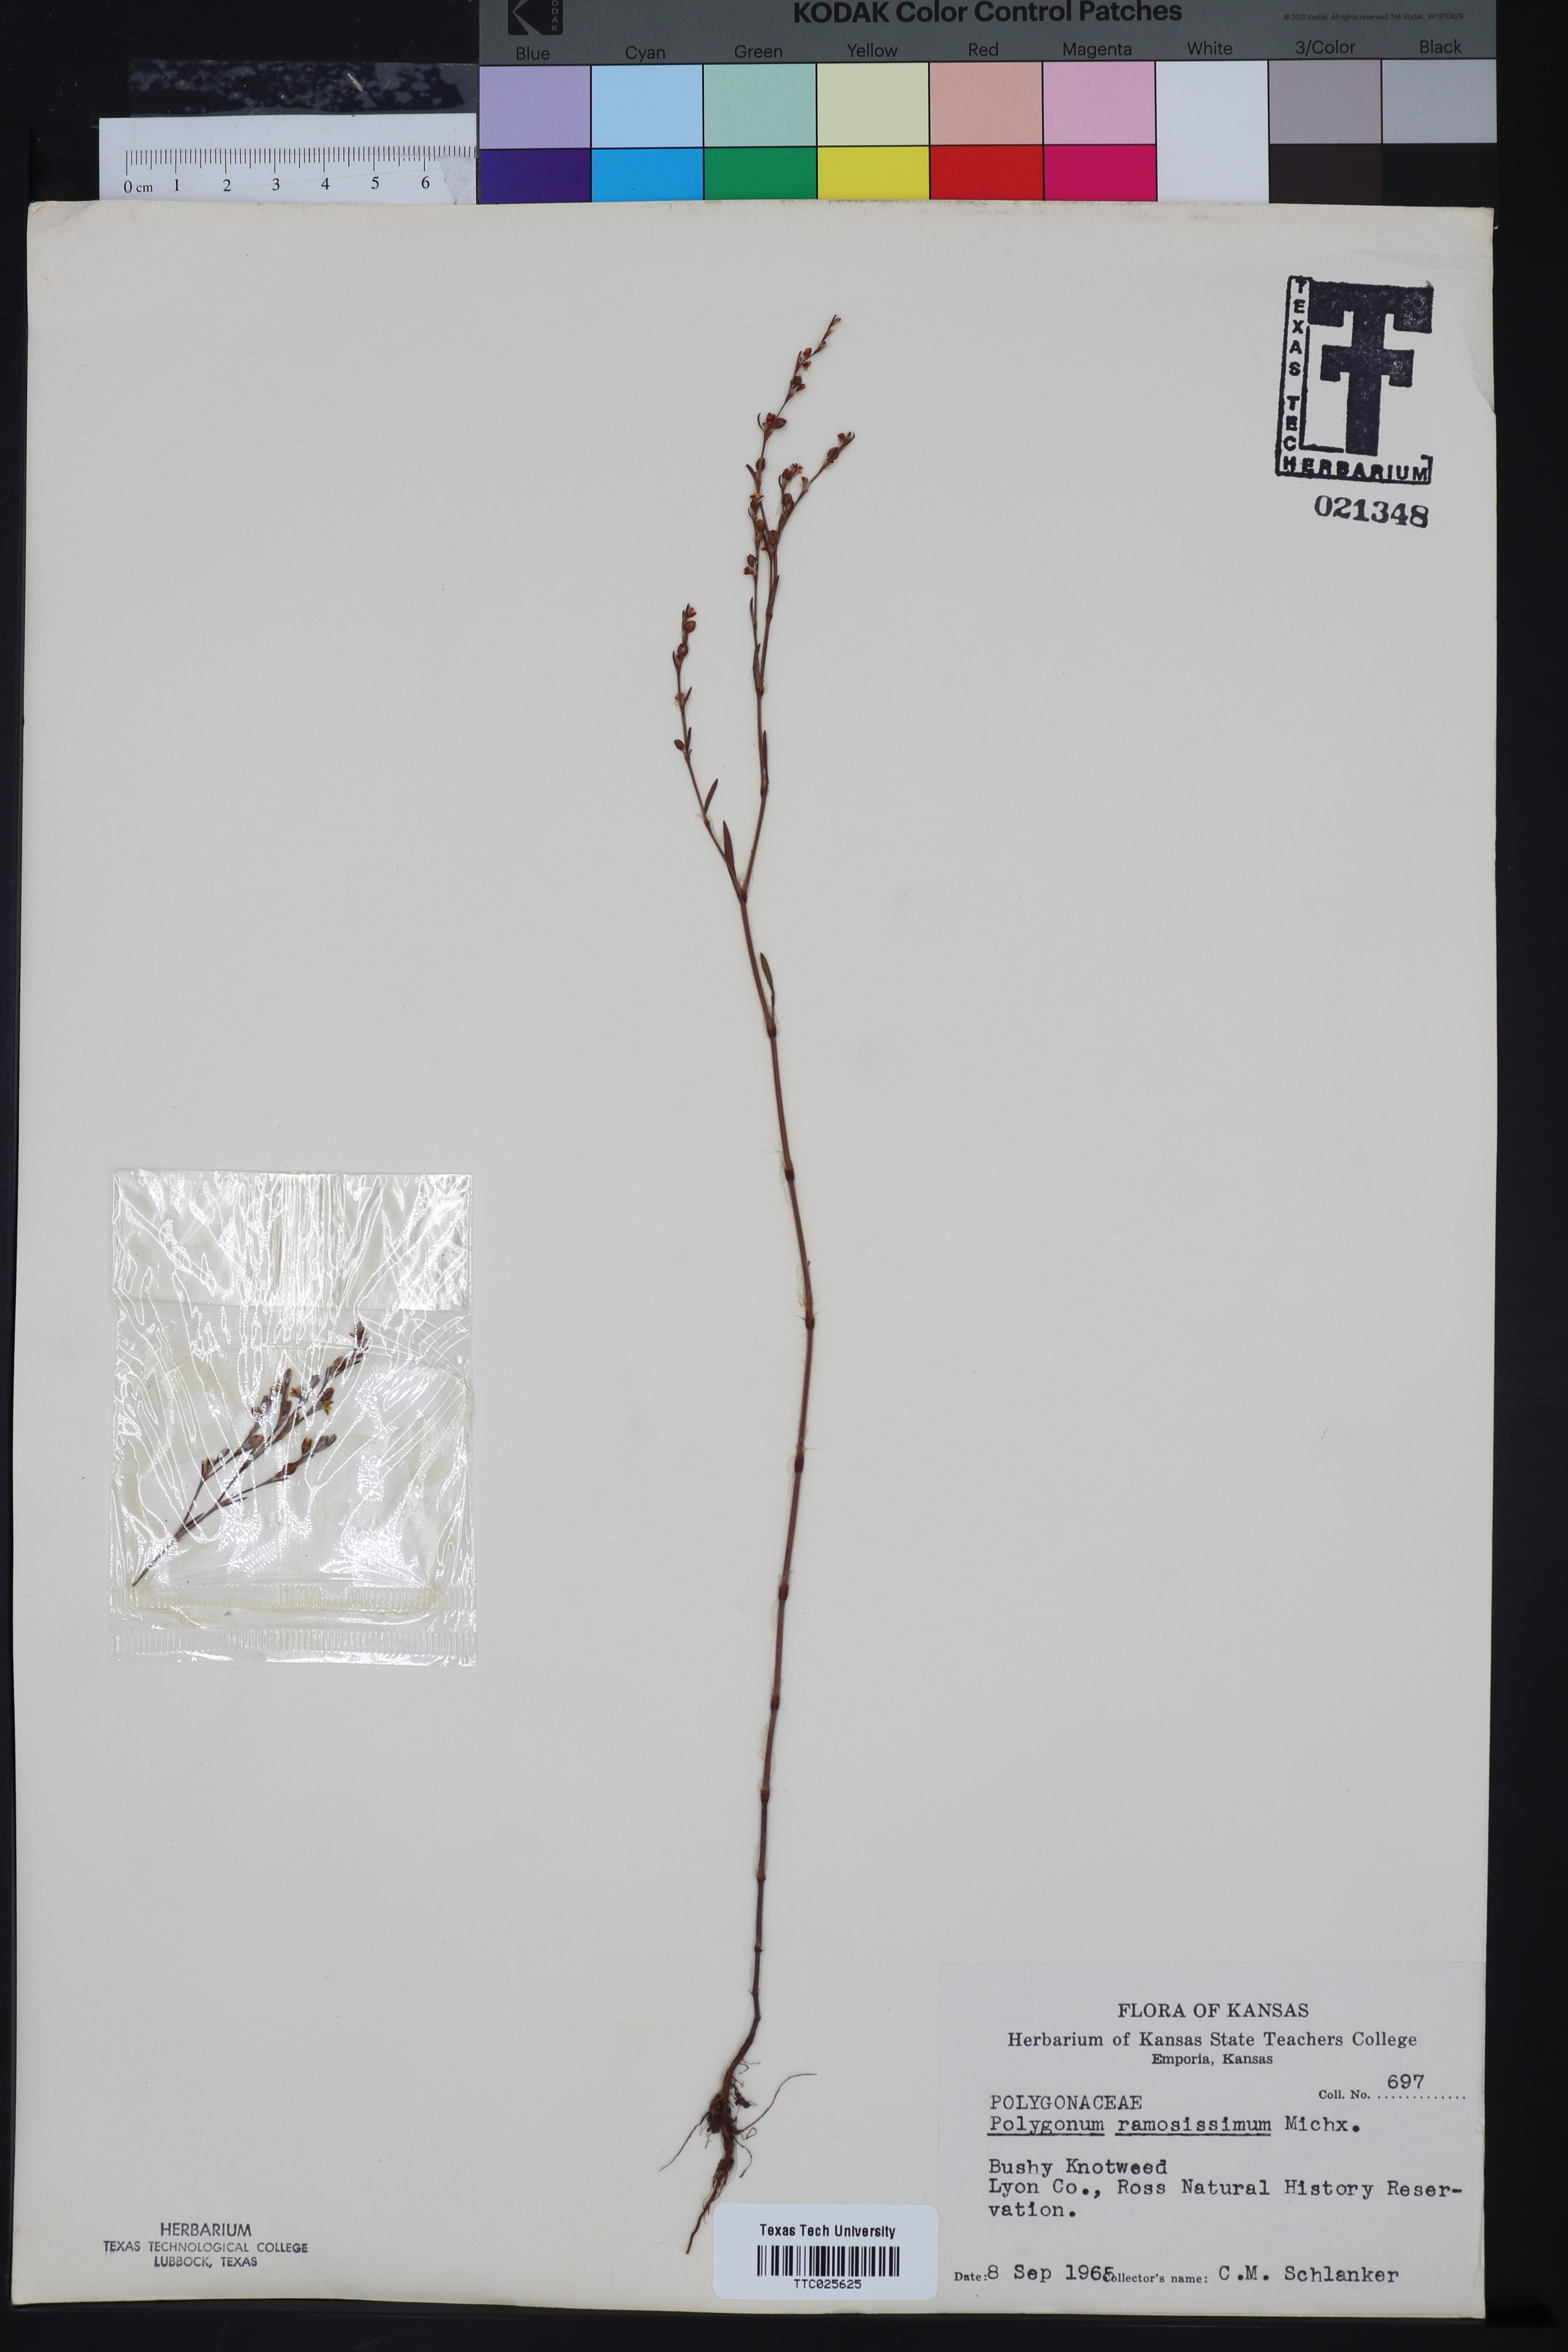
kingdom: Plantae
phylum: Tracheophyta
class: Magnoliopsida
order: Caryophyllales
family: Polygonaceae
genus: Polygonum
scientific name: Polygonum ramosissimum
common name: Bushy knotweed
